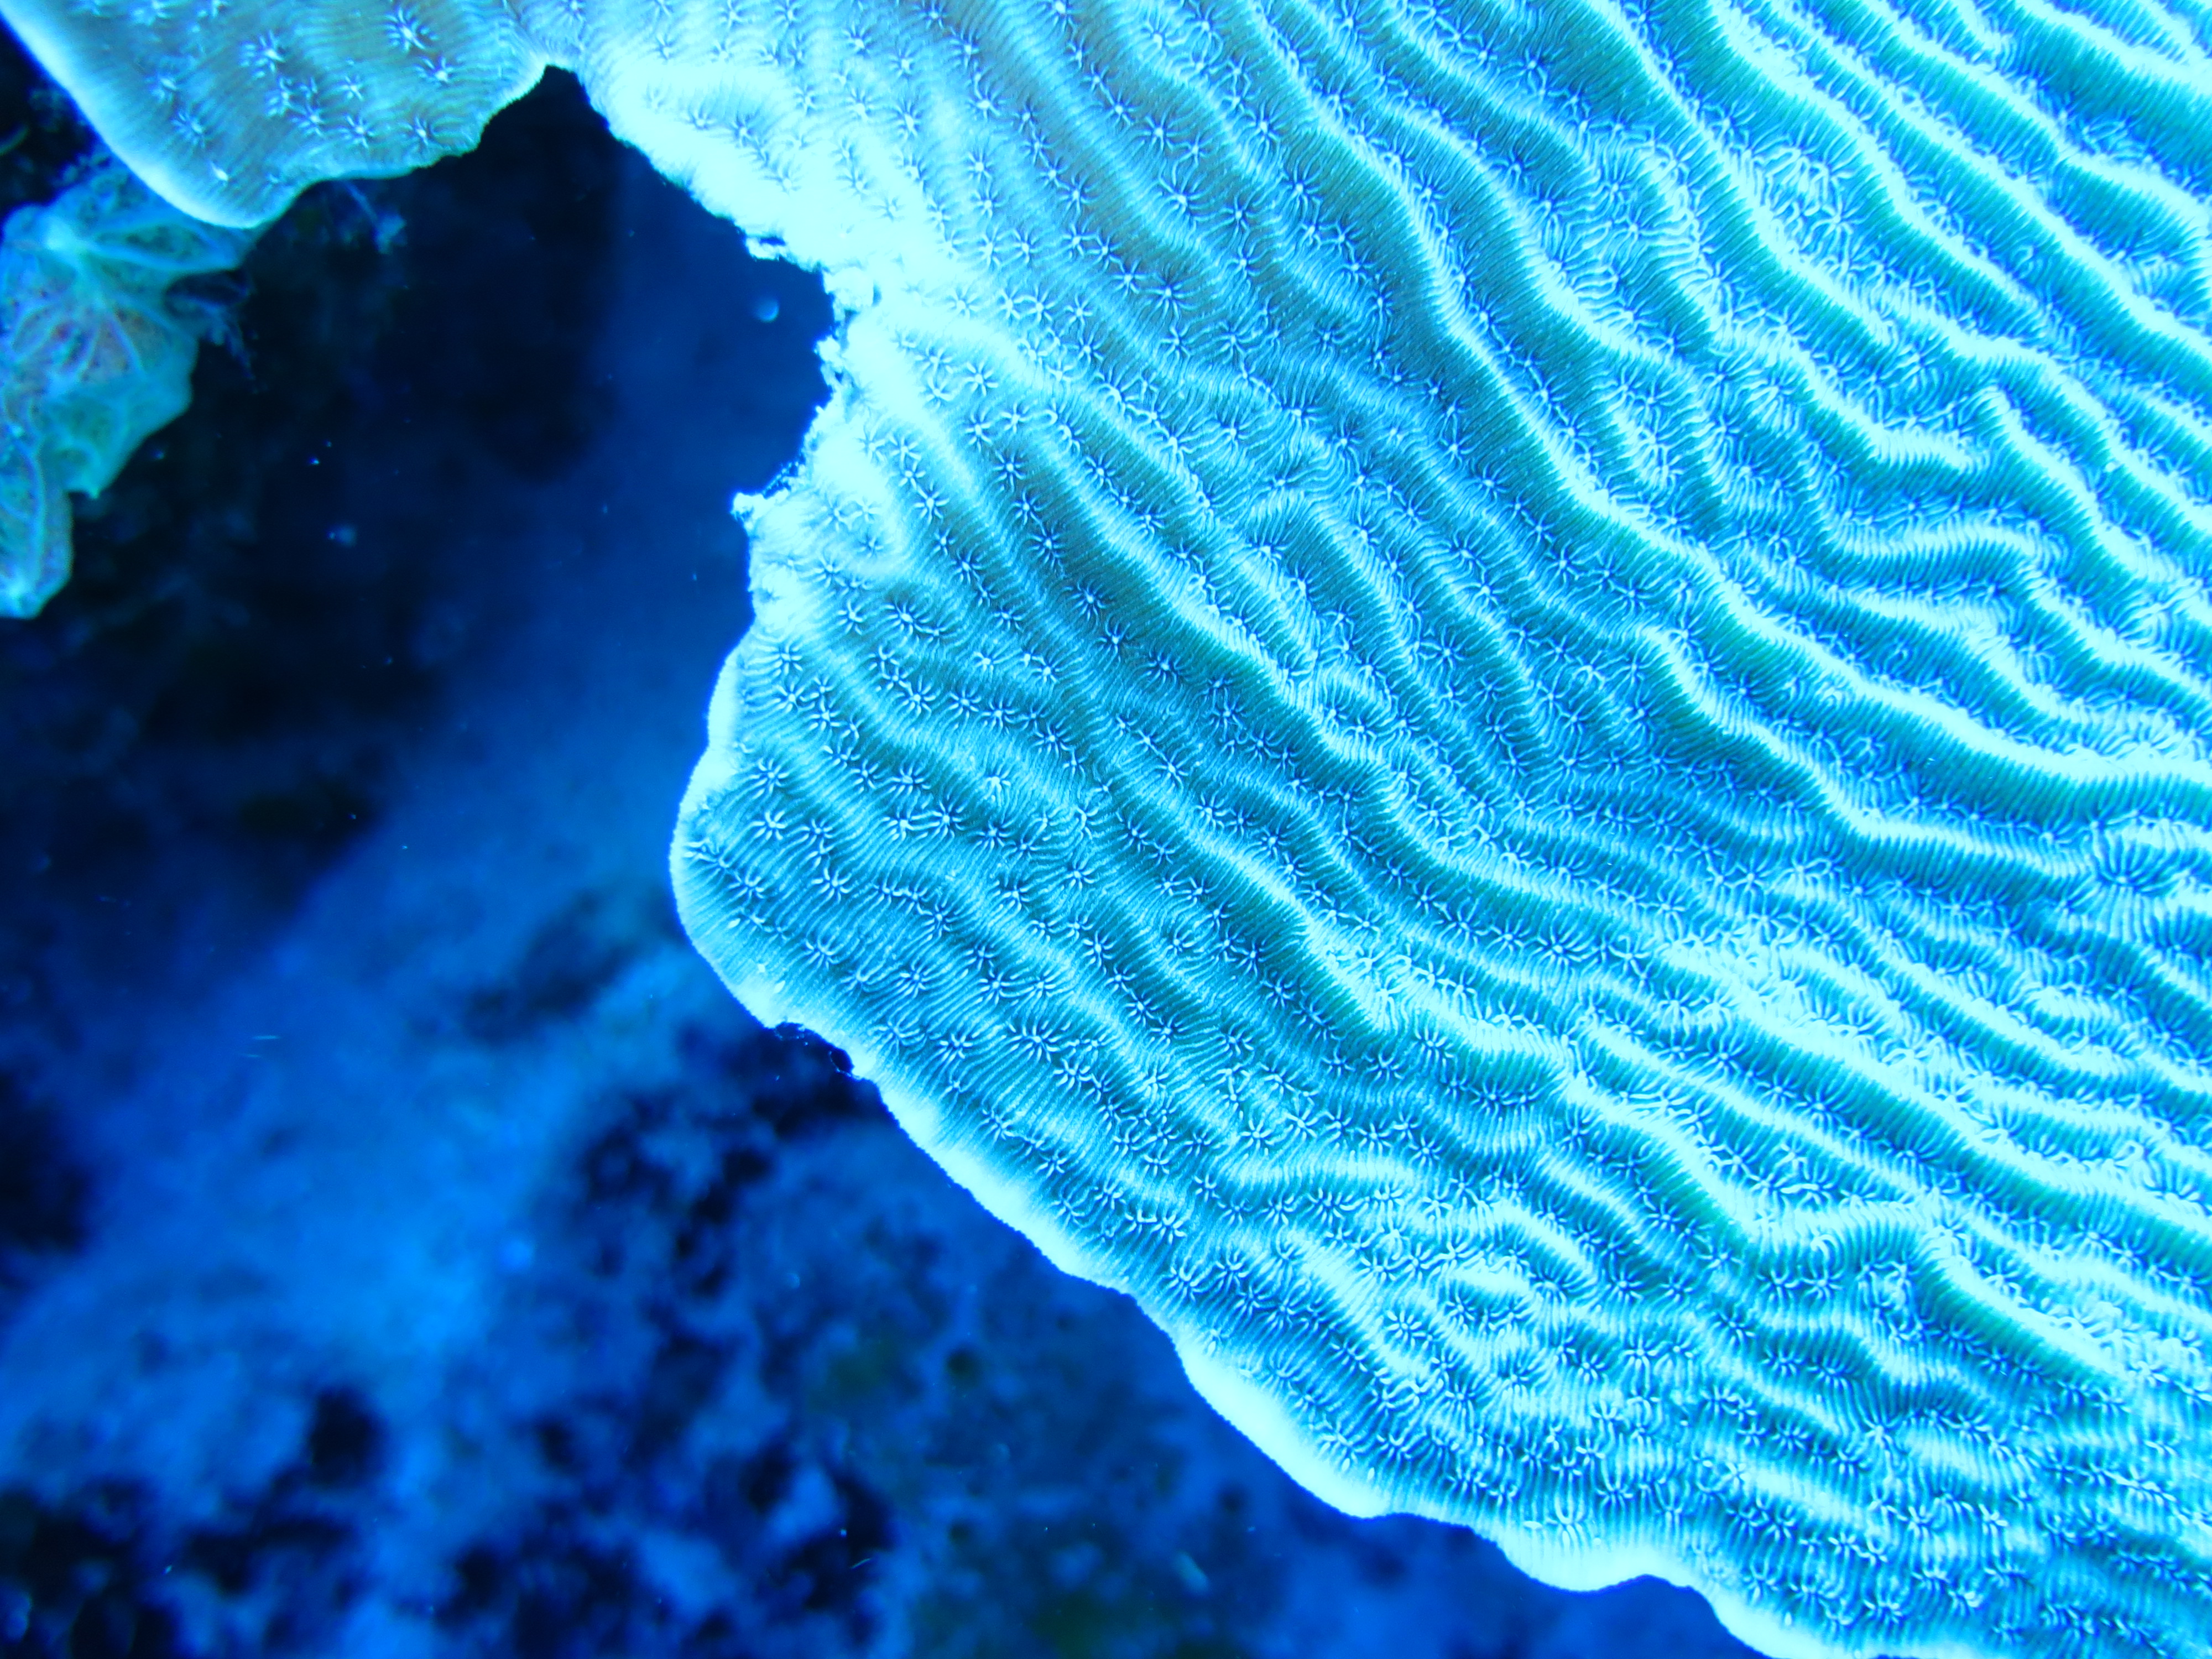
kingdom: Animalia
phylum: Cnidaria
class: Anthozoa
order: Scleractinia
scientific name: Scleractinia
